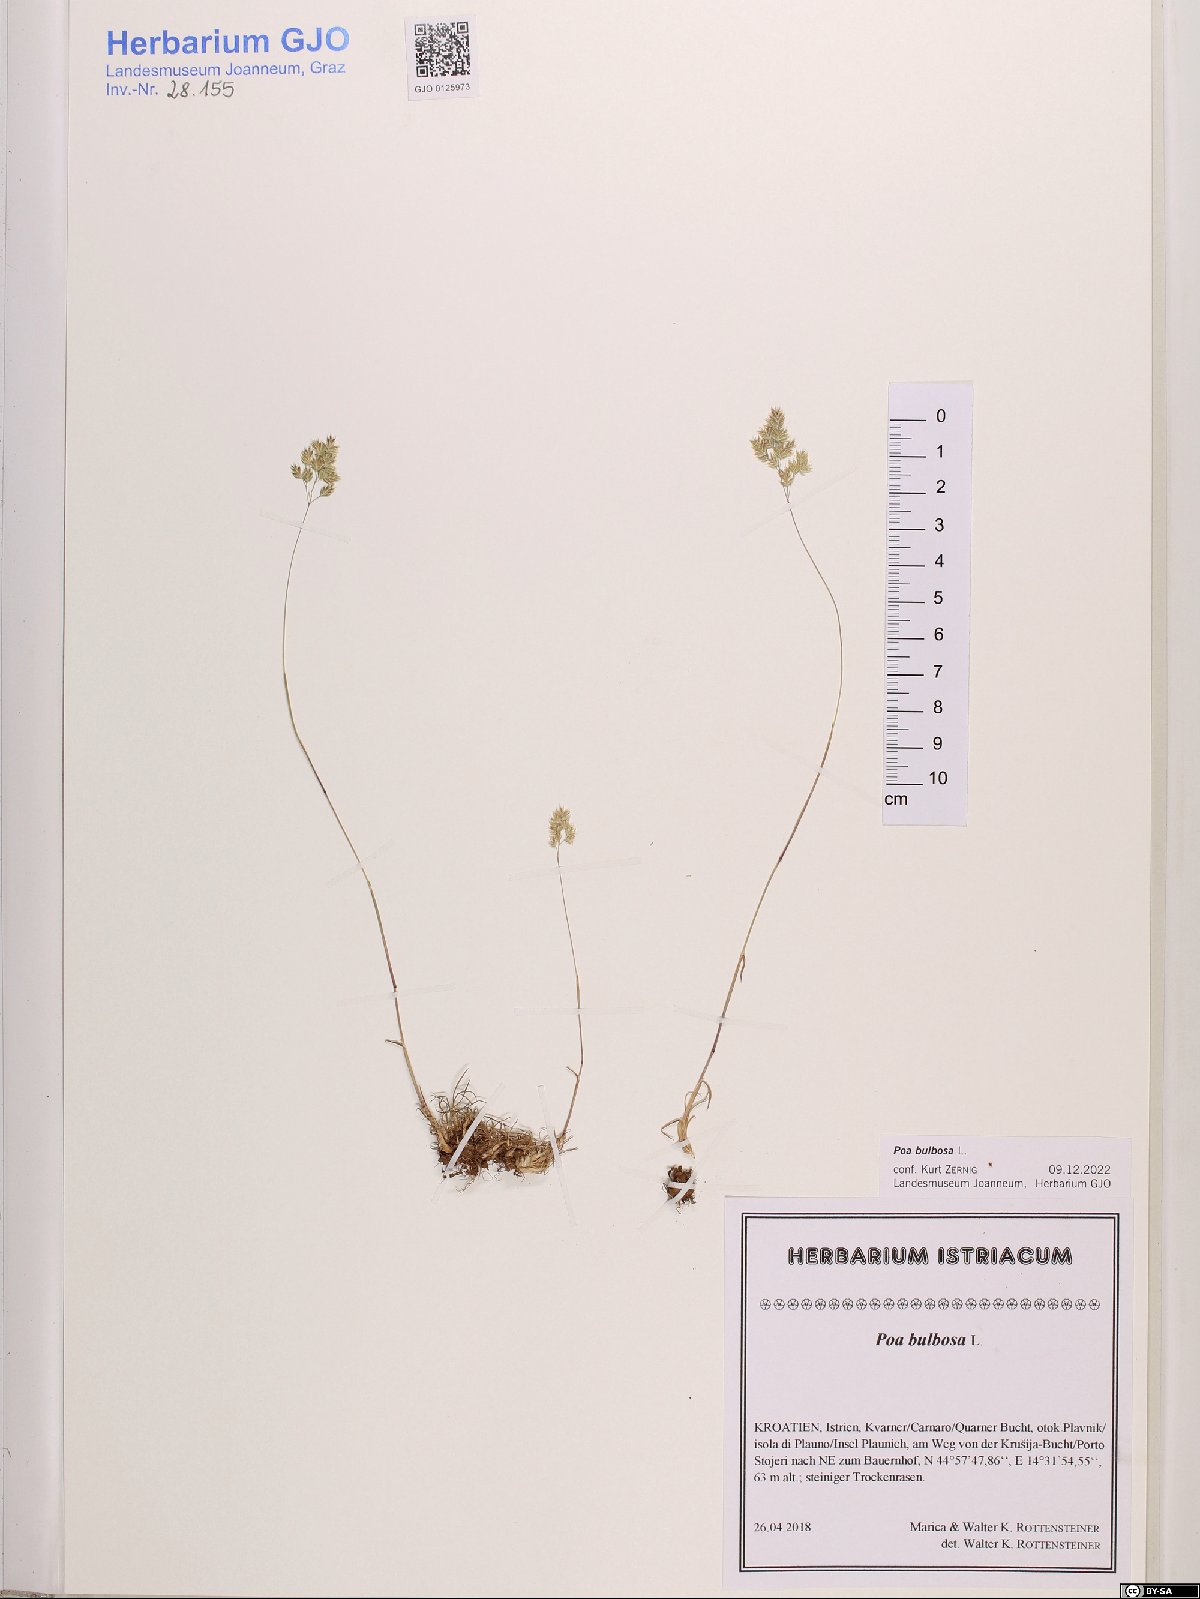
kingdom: Plantae
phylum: Tracheophyta
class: Liliopsida
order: Poales
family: Poaceae
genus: Poa
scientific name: Poa bulbosa
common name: Bulbous bluegrass
